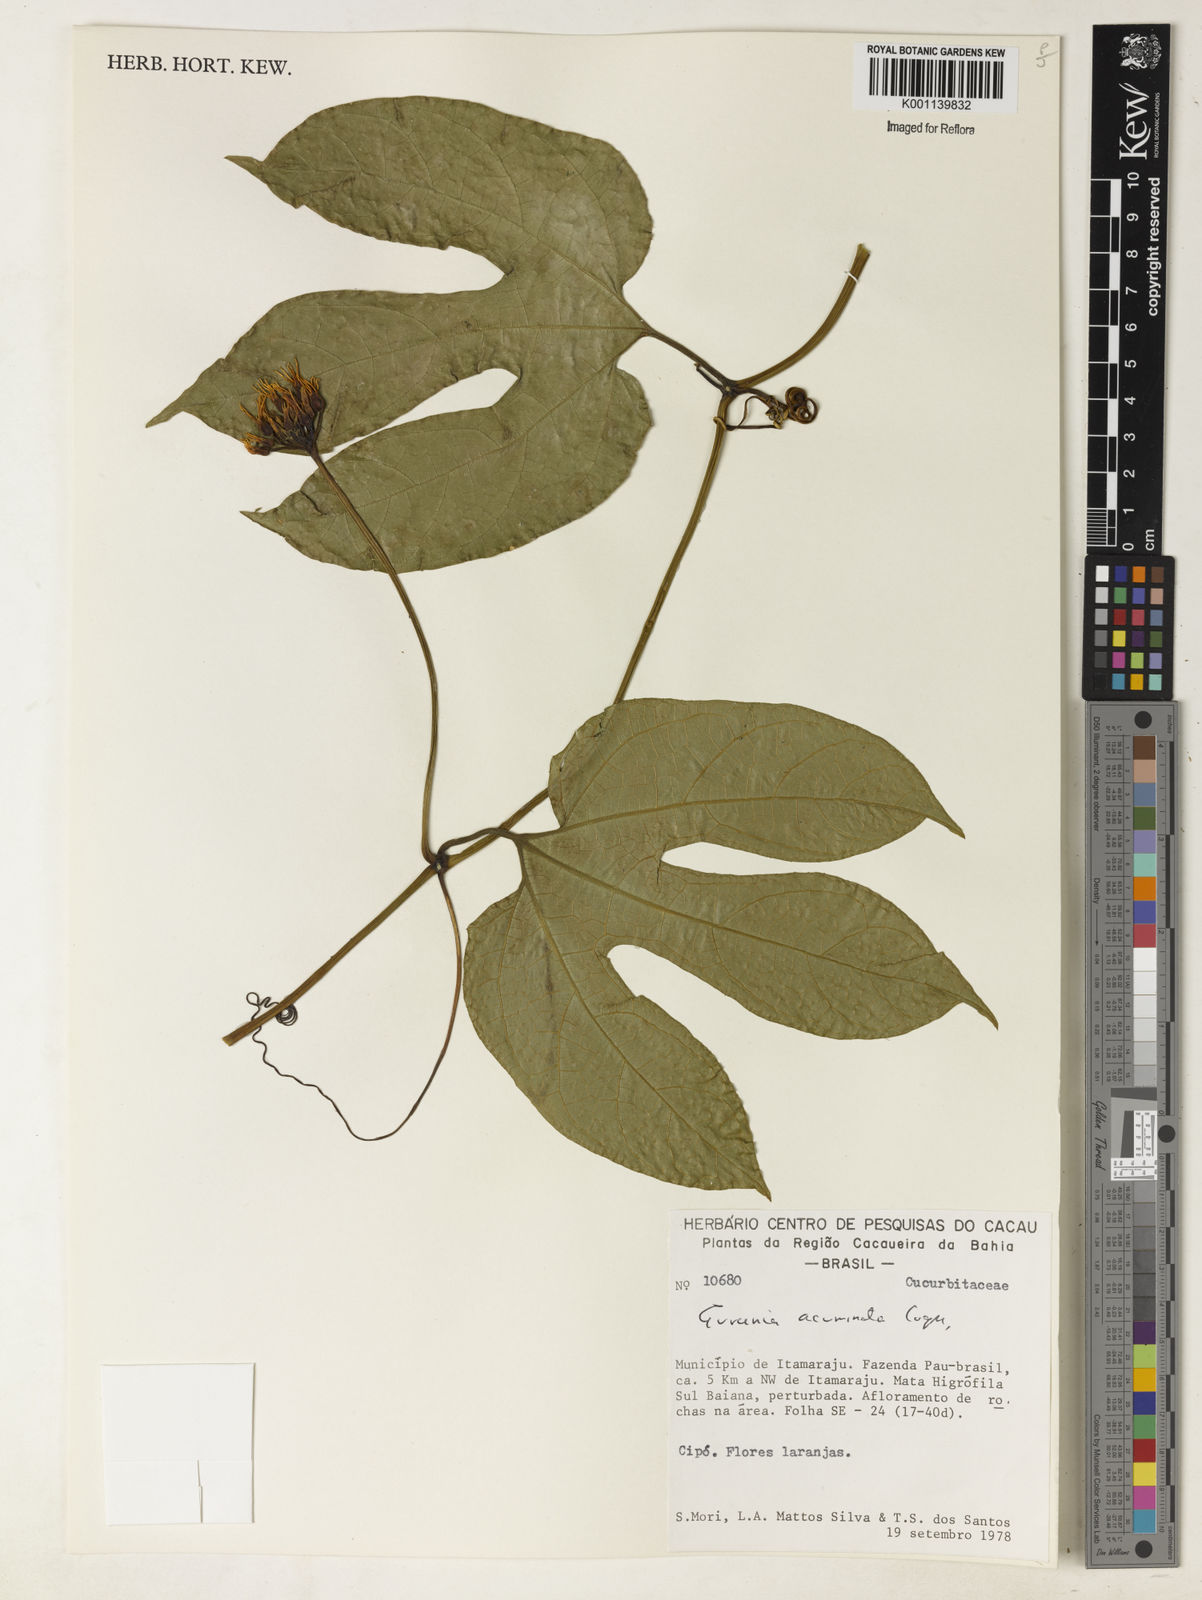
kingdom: Plantae
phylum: Tracheophyta
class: Magnoliopsida
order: Cucurbitales
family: Cucurbitaceae
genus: Gurania
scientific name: Gurania acuminata
